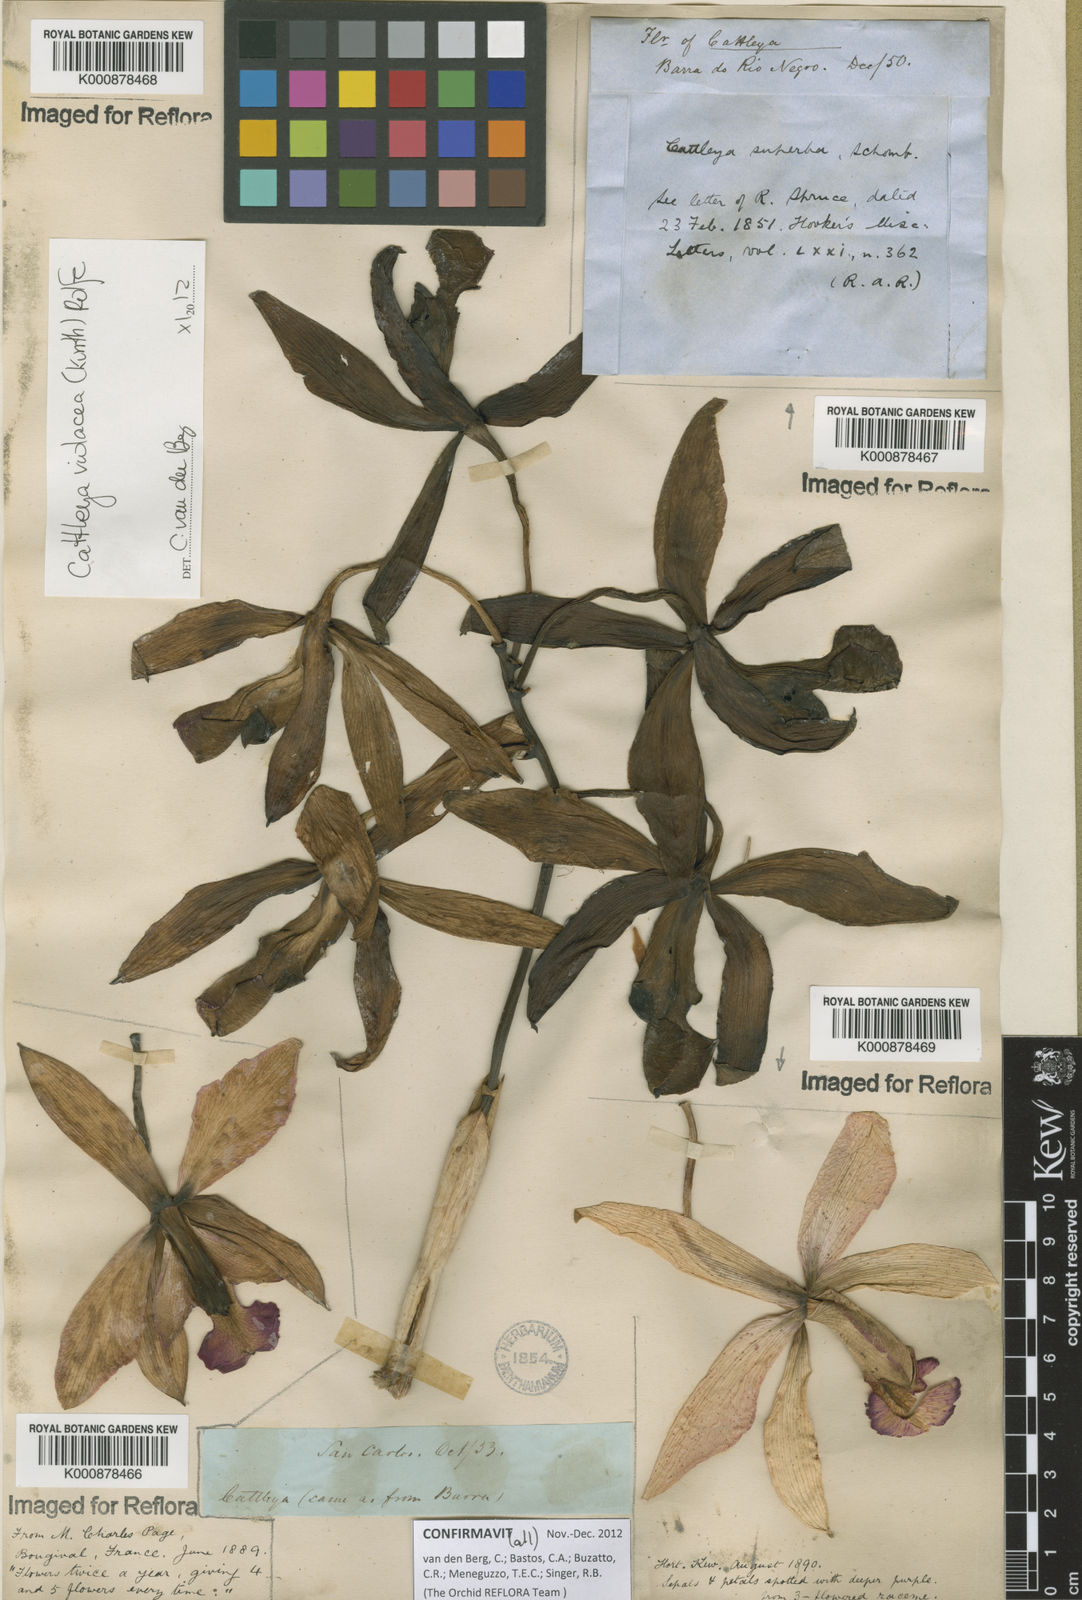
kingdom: Plantae
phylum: Tracheophyta
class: Liliopsida
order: Asparagales
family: Orchidaceae
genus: Cattleya
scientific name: Cattleya
